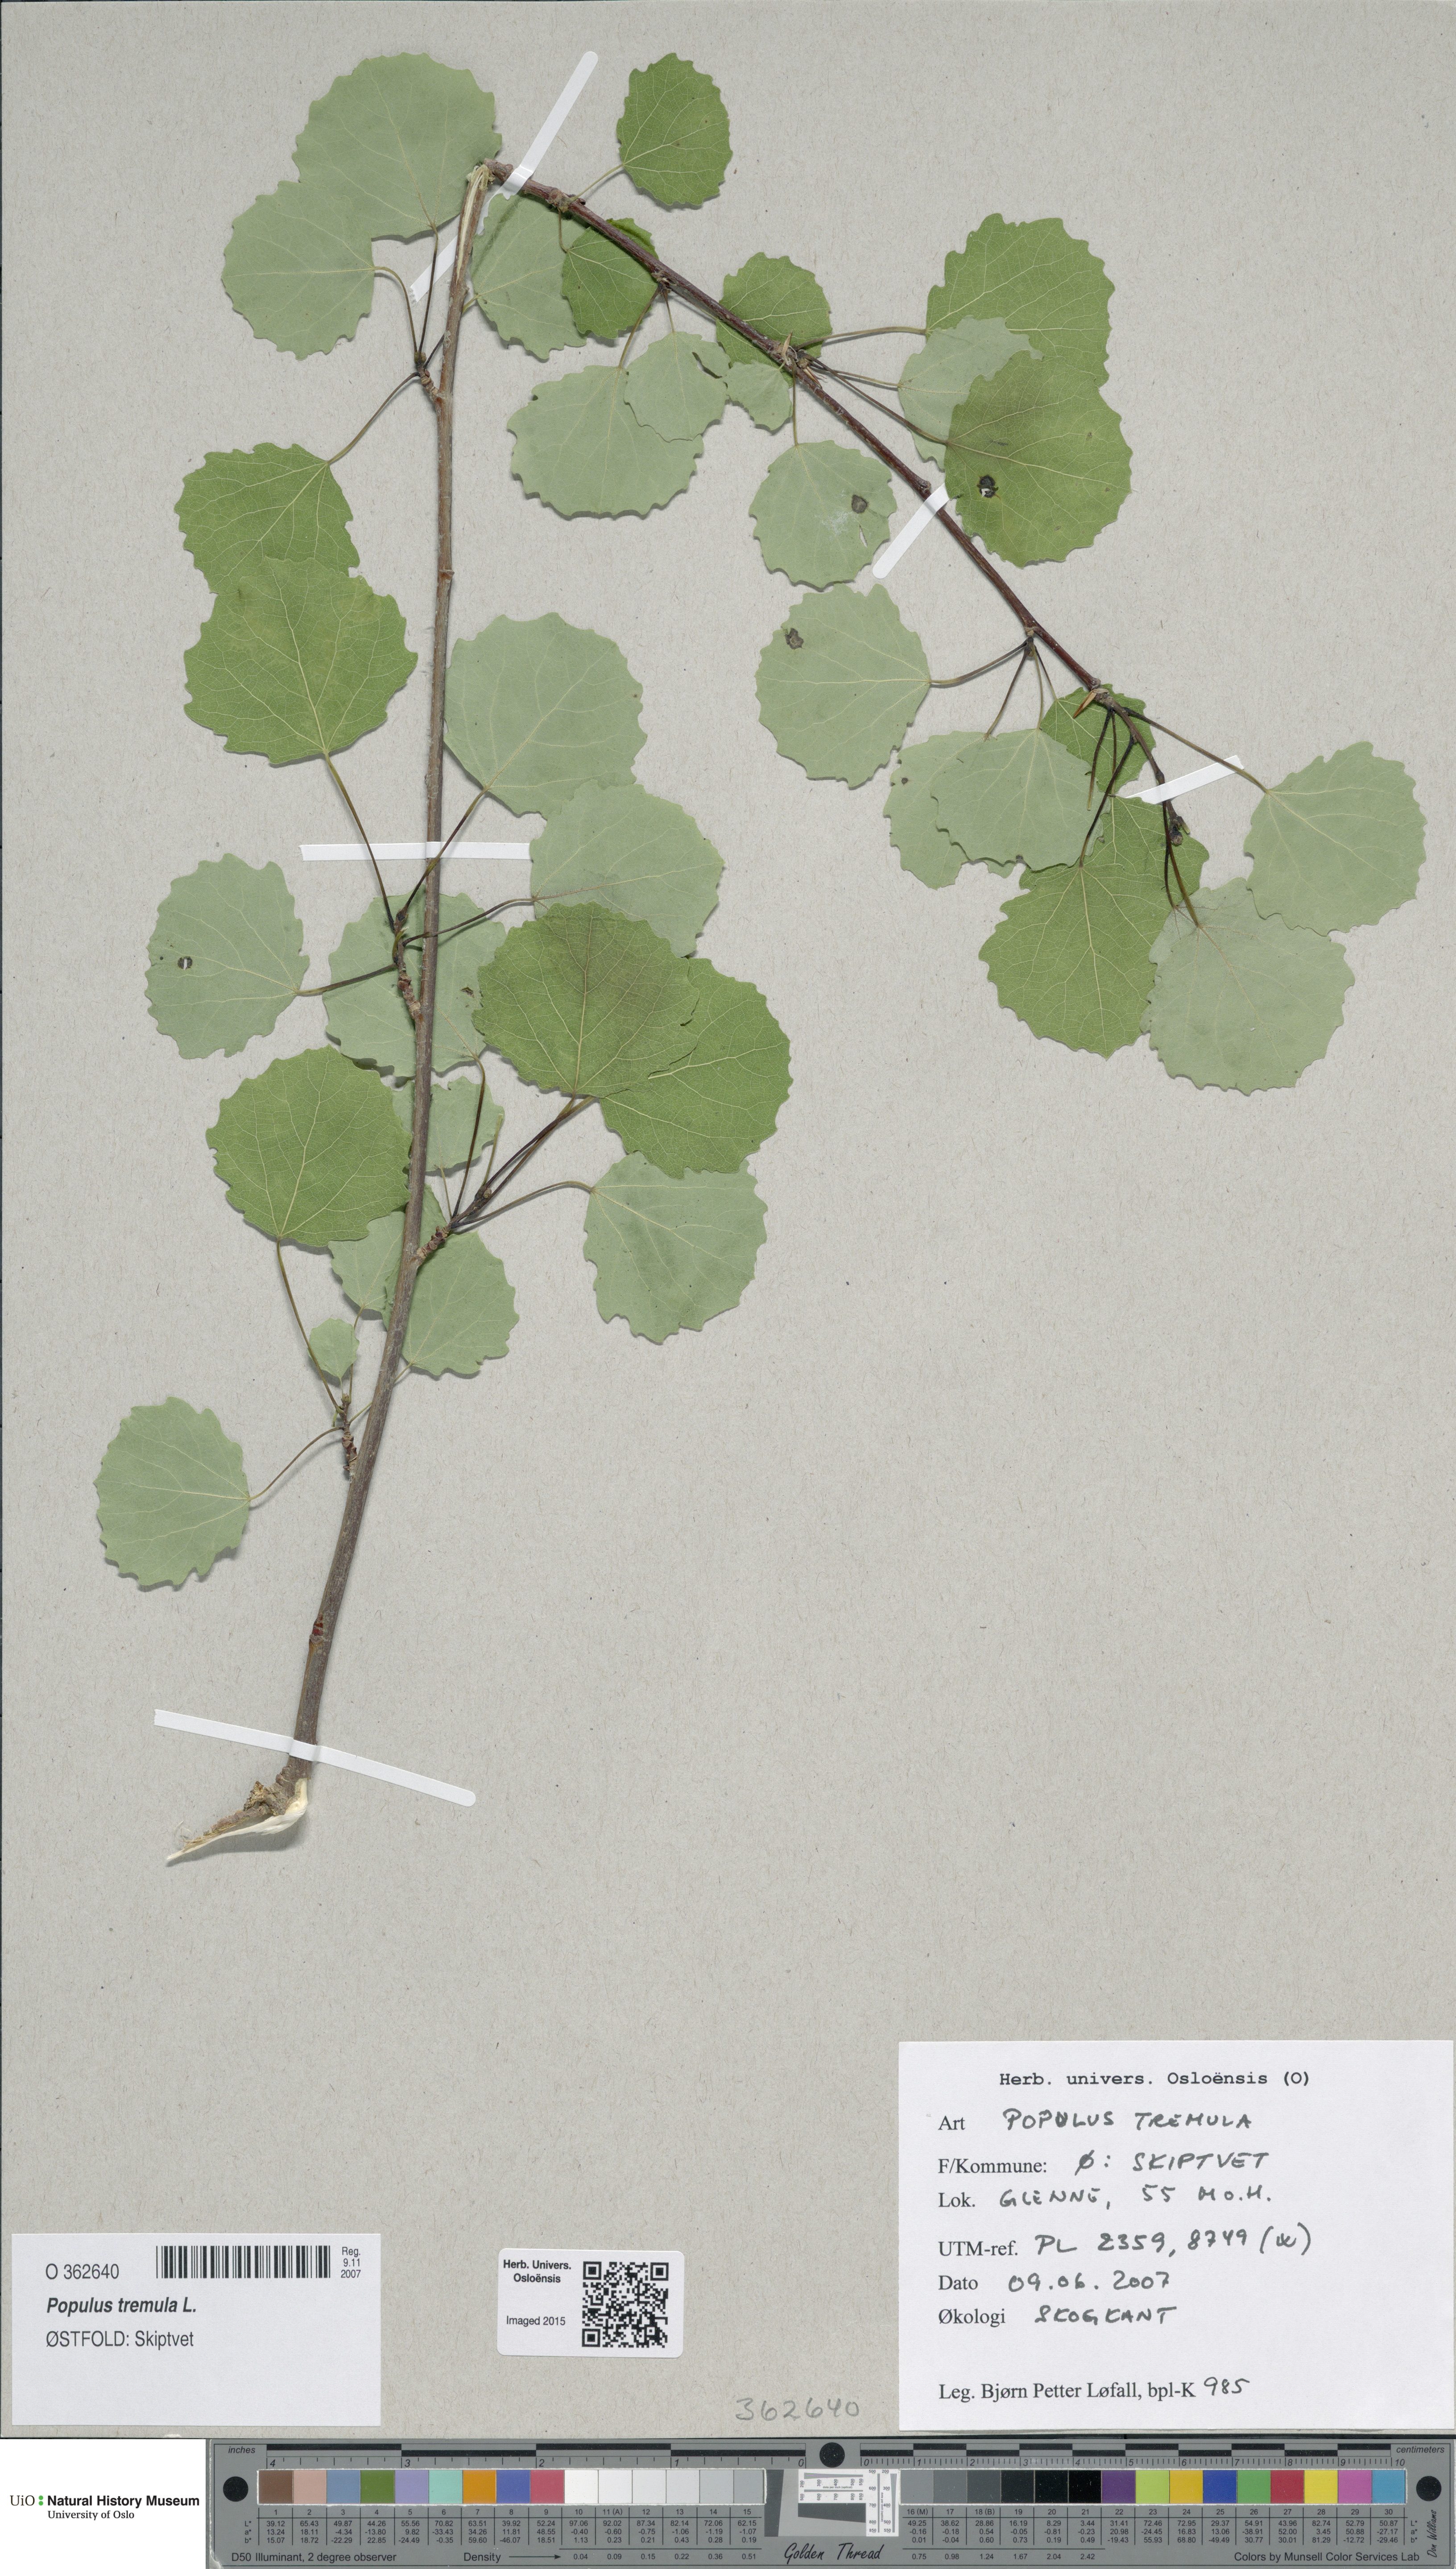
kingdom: Plantae
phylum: Tracheophyta
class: Magnoliopsida
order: Malpighiales
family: Salicaceae
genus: Populus
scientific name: Populus tremula
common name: European aspen
